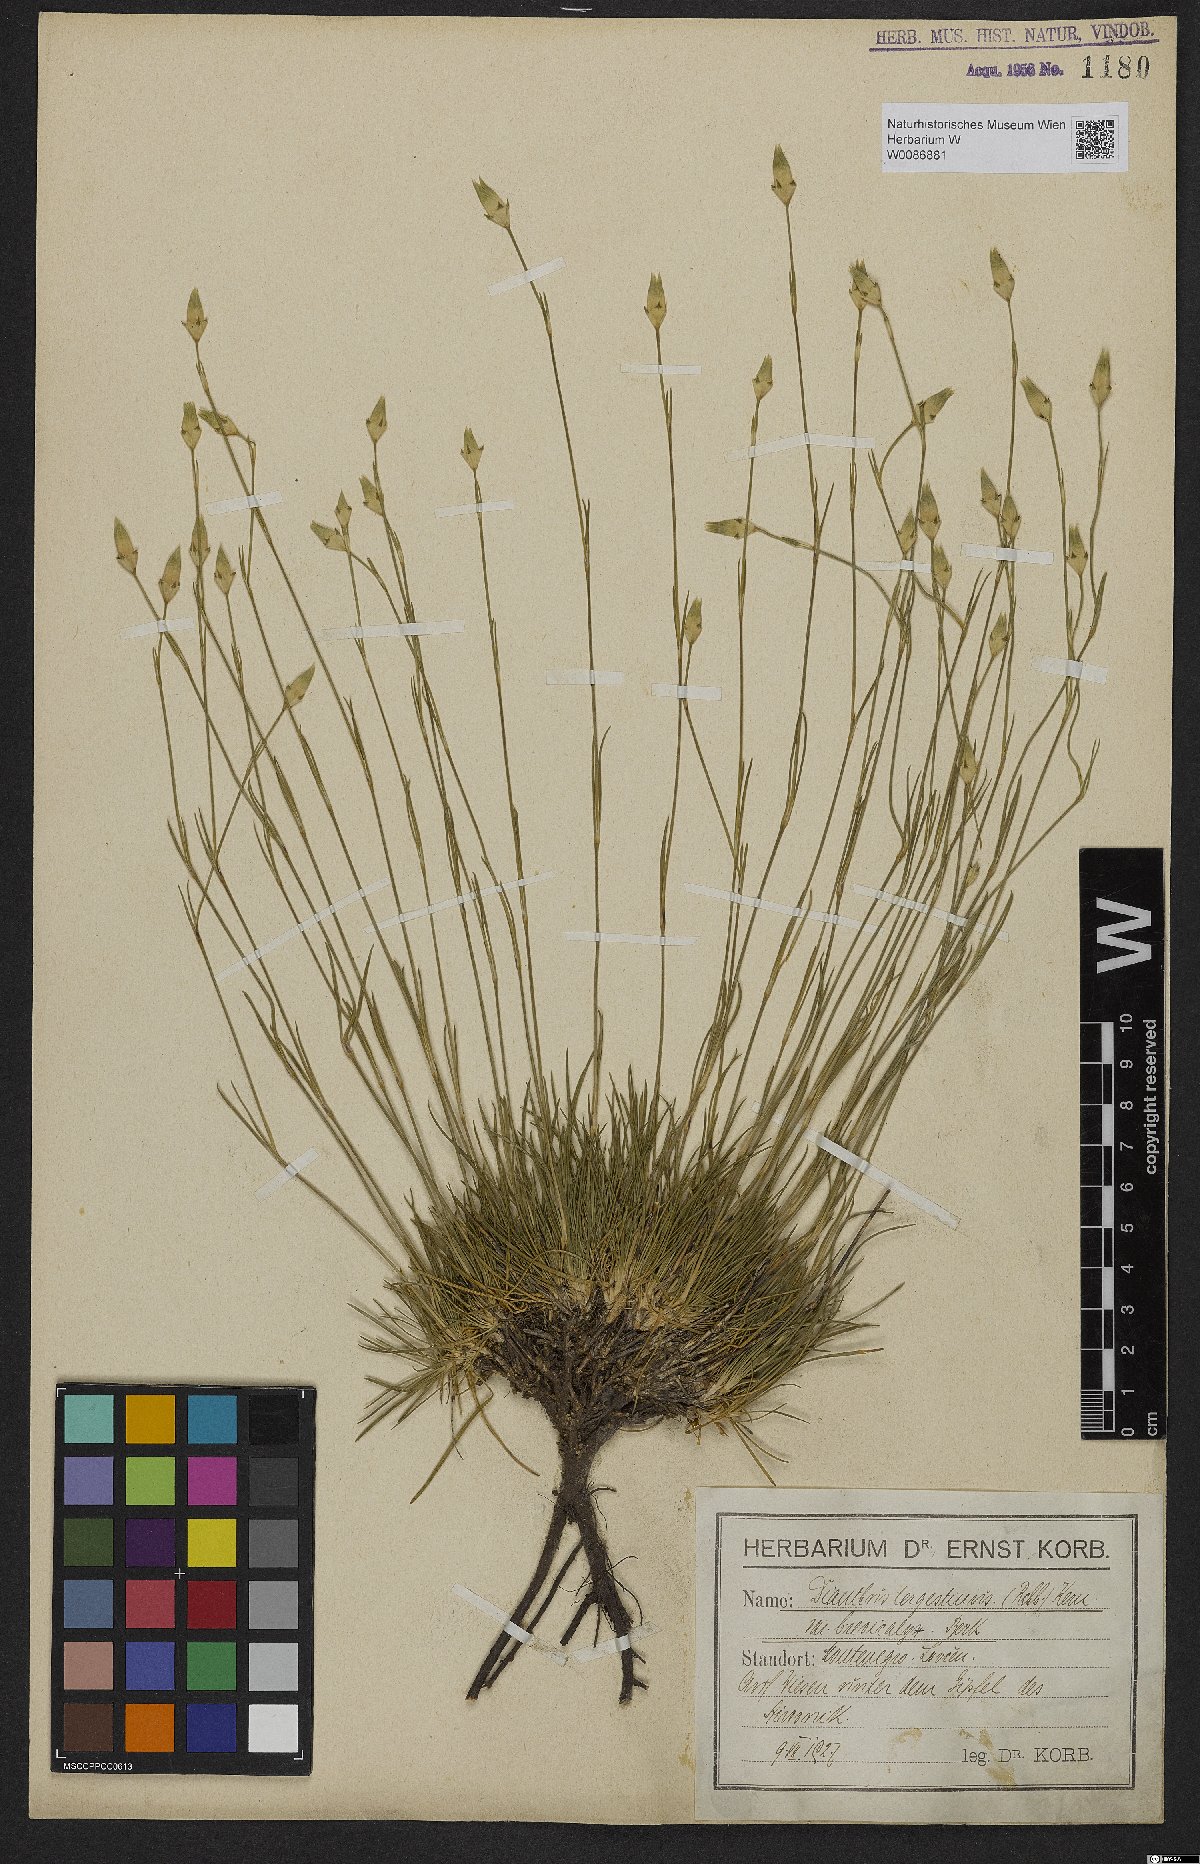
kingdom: Plantae
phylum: Tracheophyta
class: Magnoliopsida
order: Caryophyllales
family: Caryophyllaceae
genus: Dianthus
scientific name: Dianthus sylvestris
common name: Wood pink
